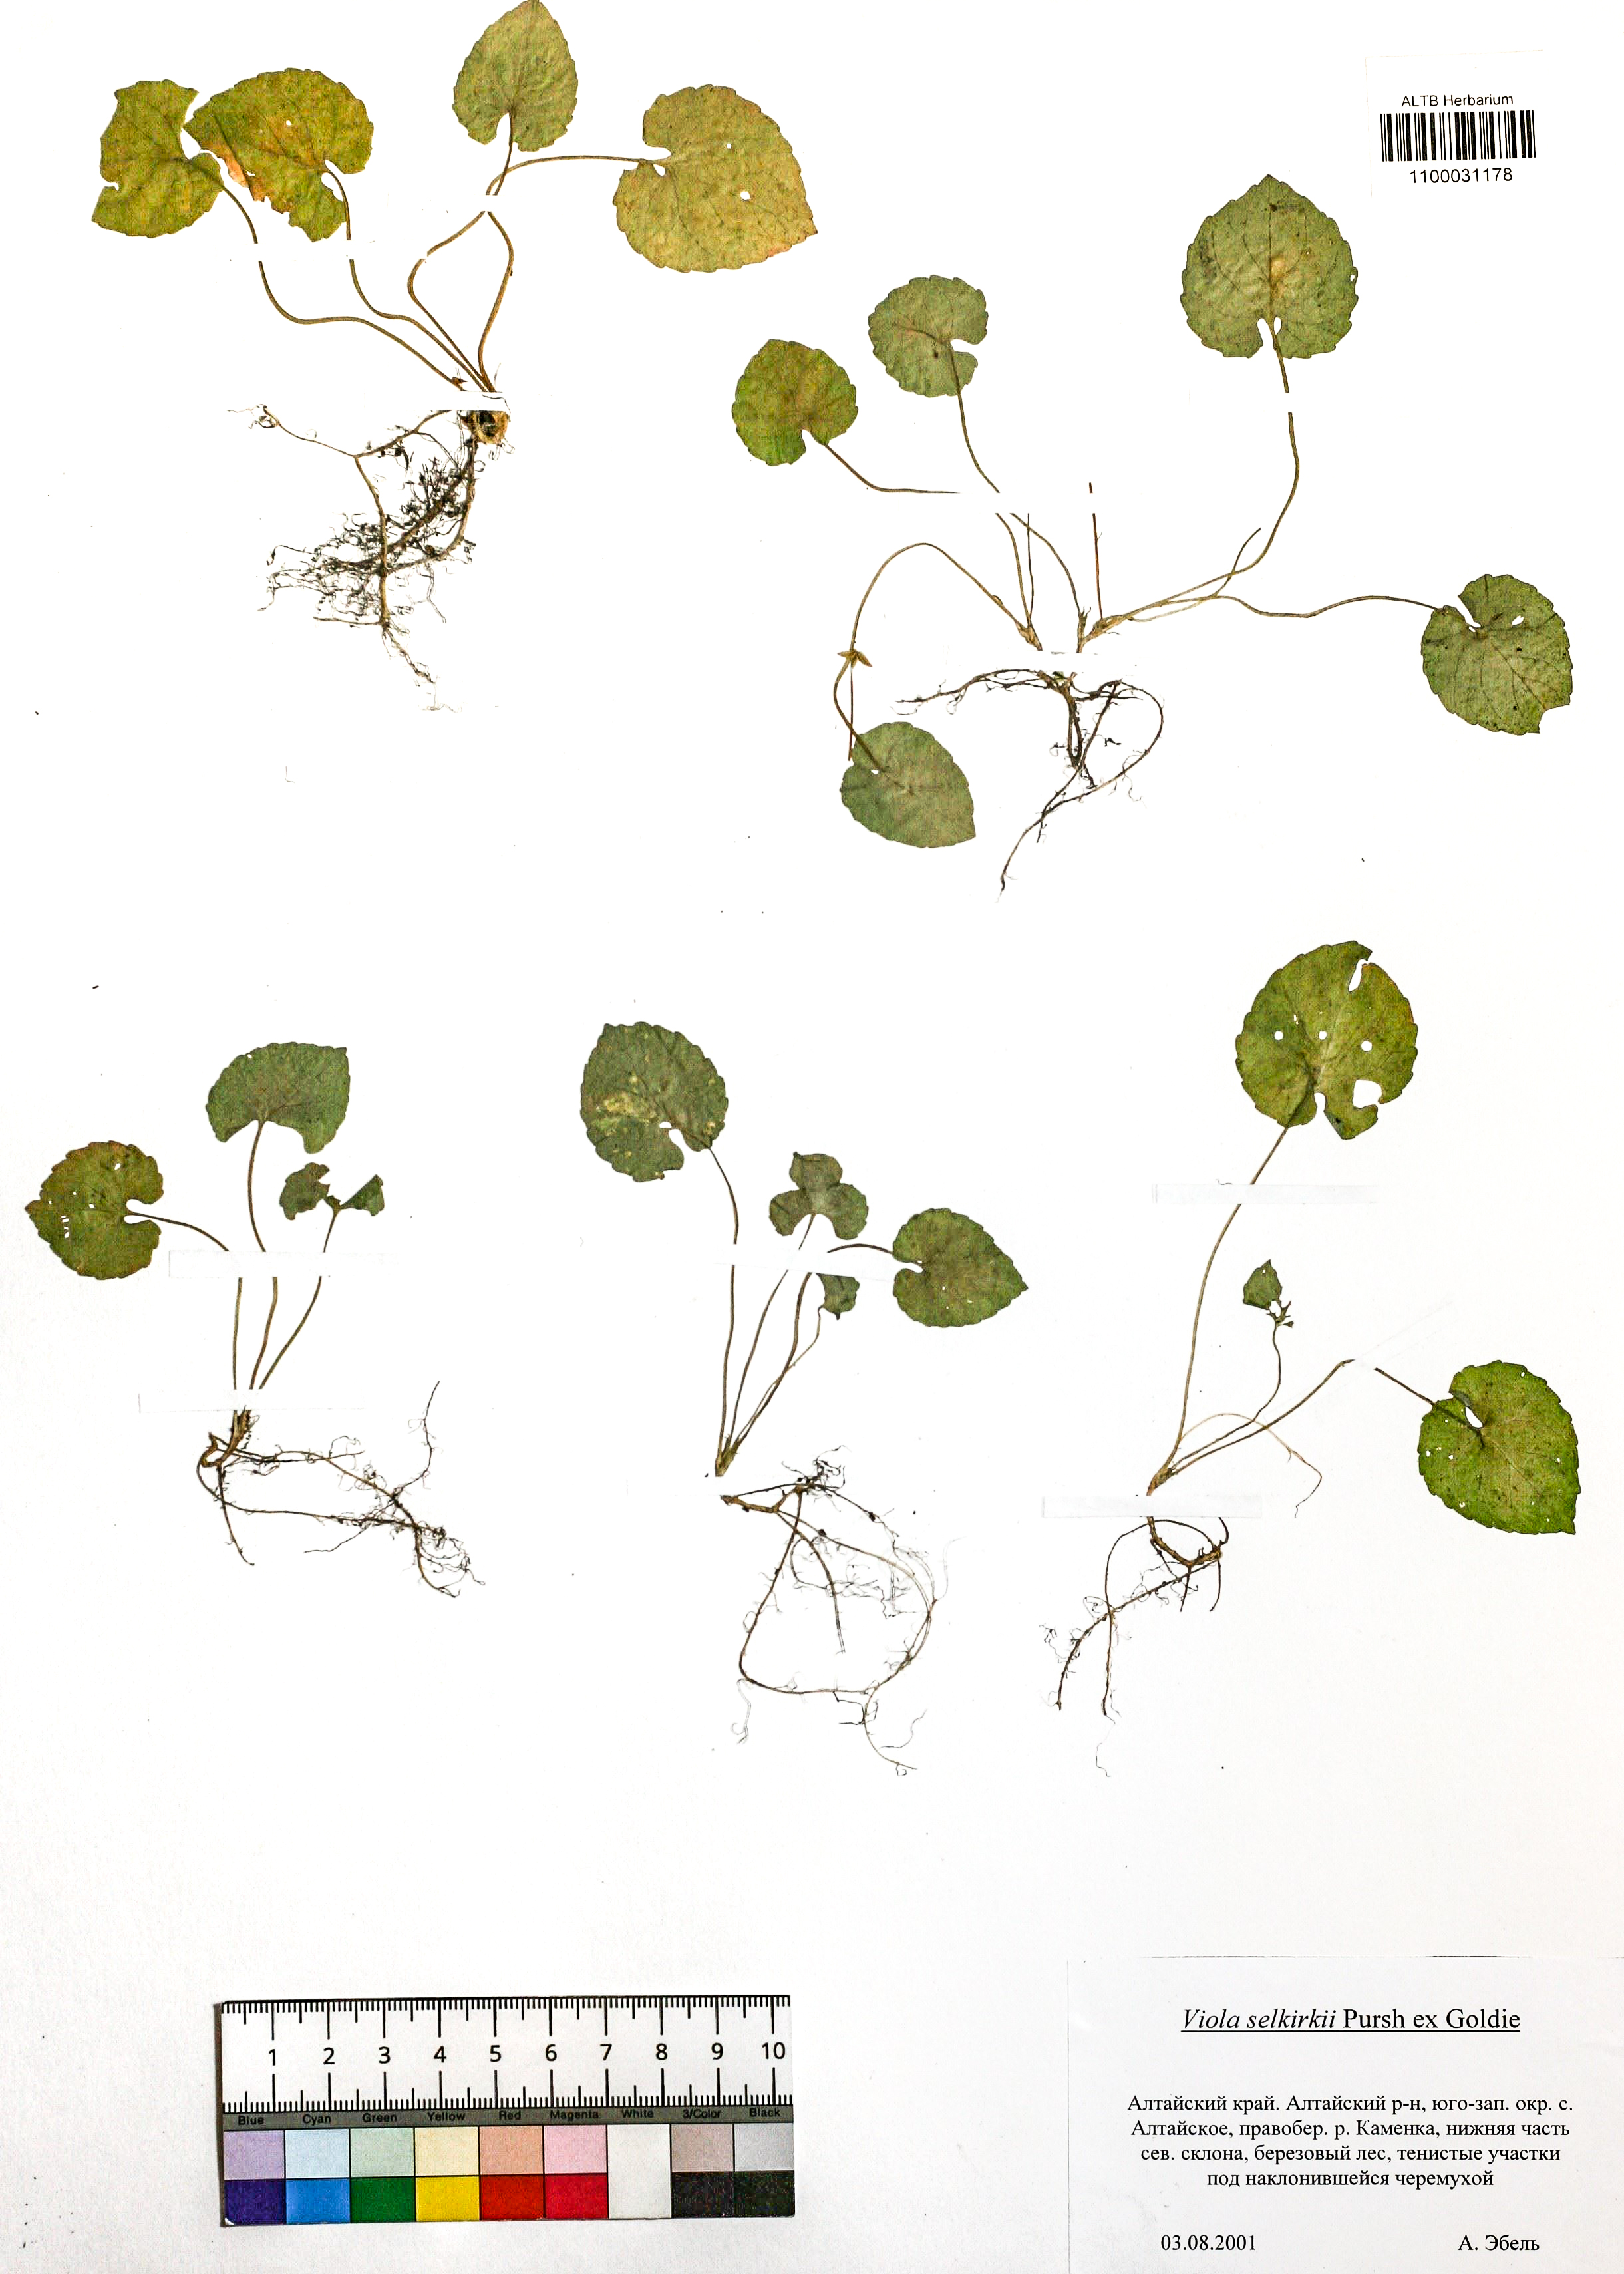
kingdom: Plantae
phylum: Tracheophyta
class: Magnoliopsida
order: Malpighiales
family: Violaceae
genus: Viola
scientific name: Viola selkirkii
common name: Selkirk's violet
